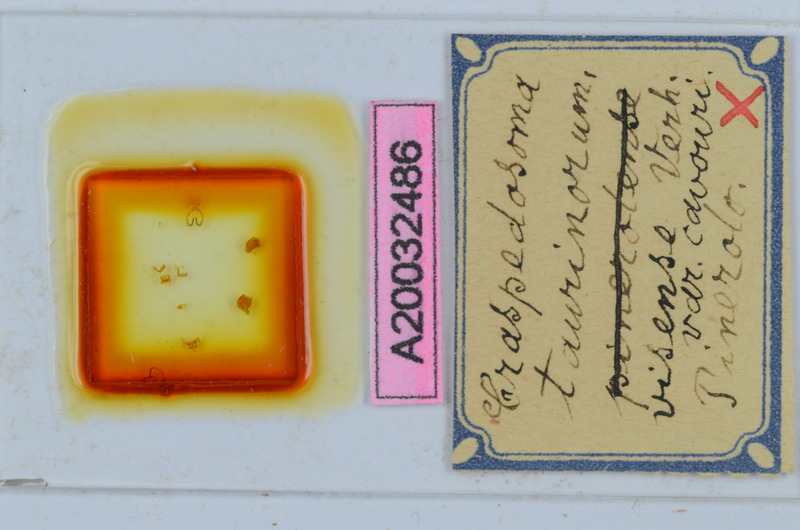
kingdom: Animalia
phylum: Arthropoda
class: Diplopoda
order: Chordeumatida
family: Craspedosomatidae
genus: Craspedosoma
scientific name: Craspedosoma taurinorum
